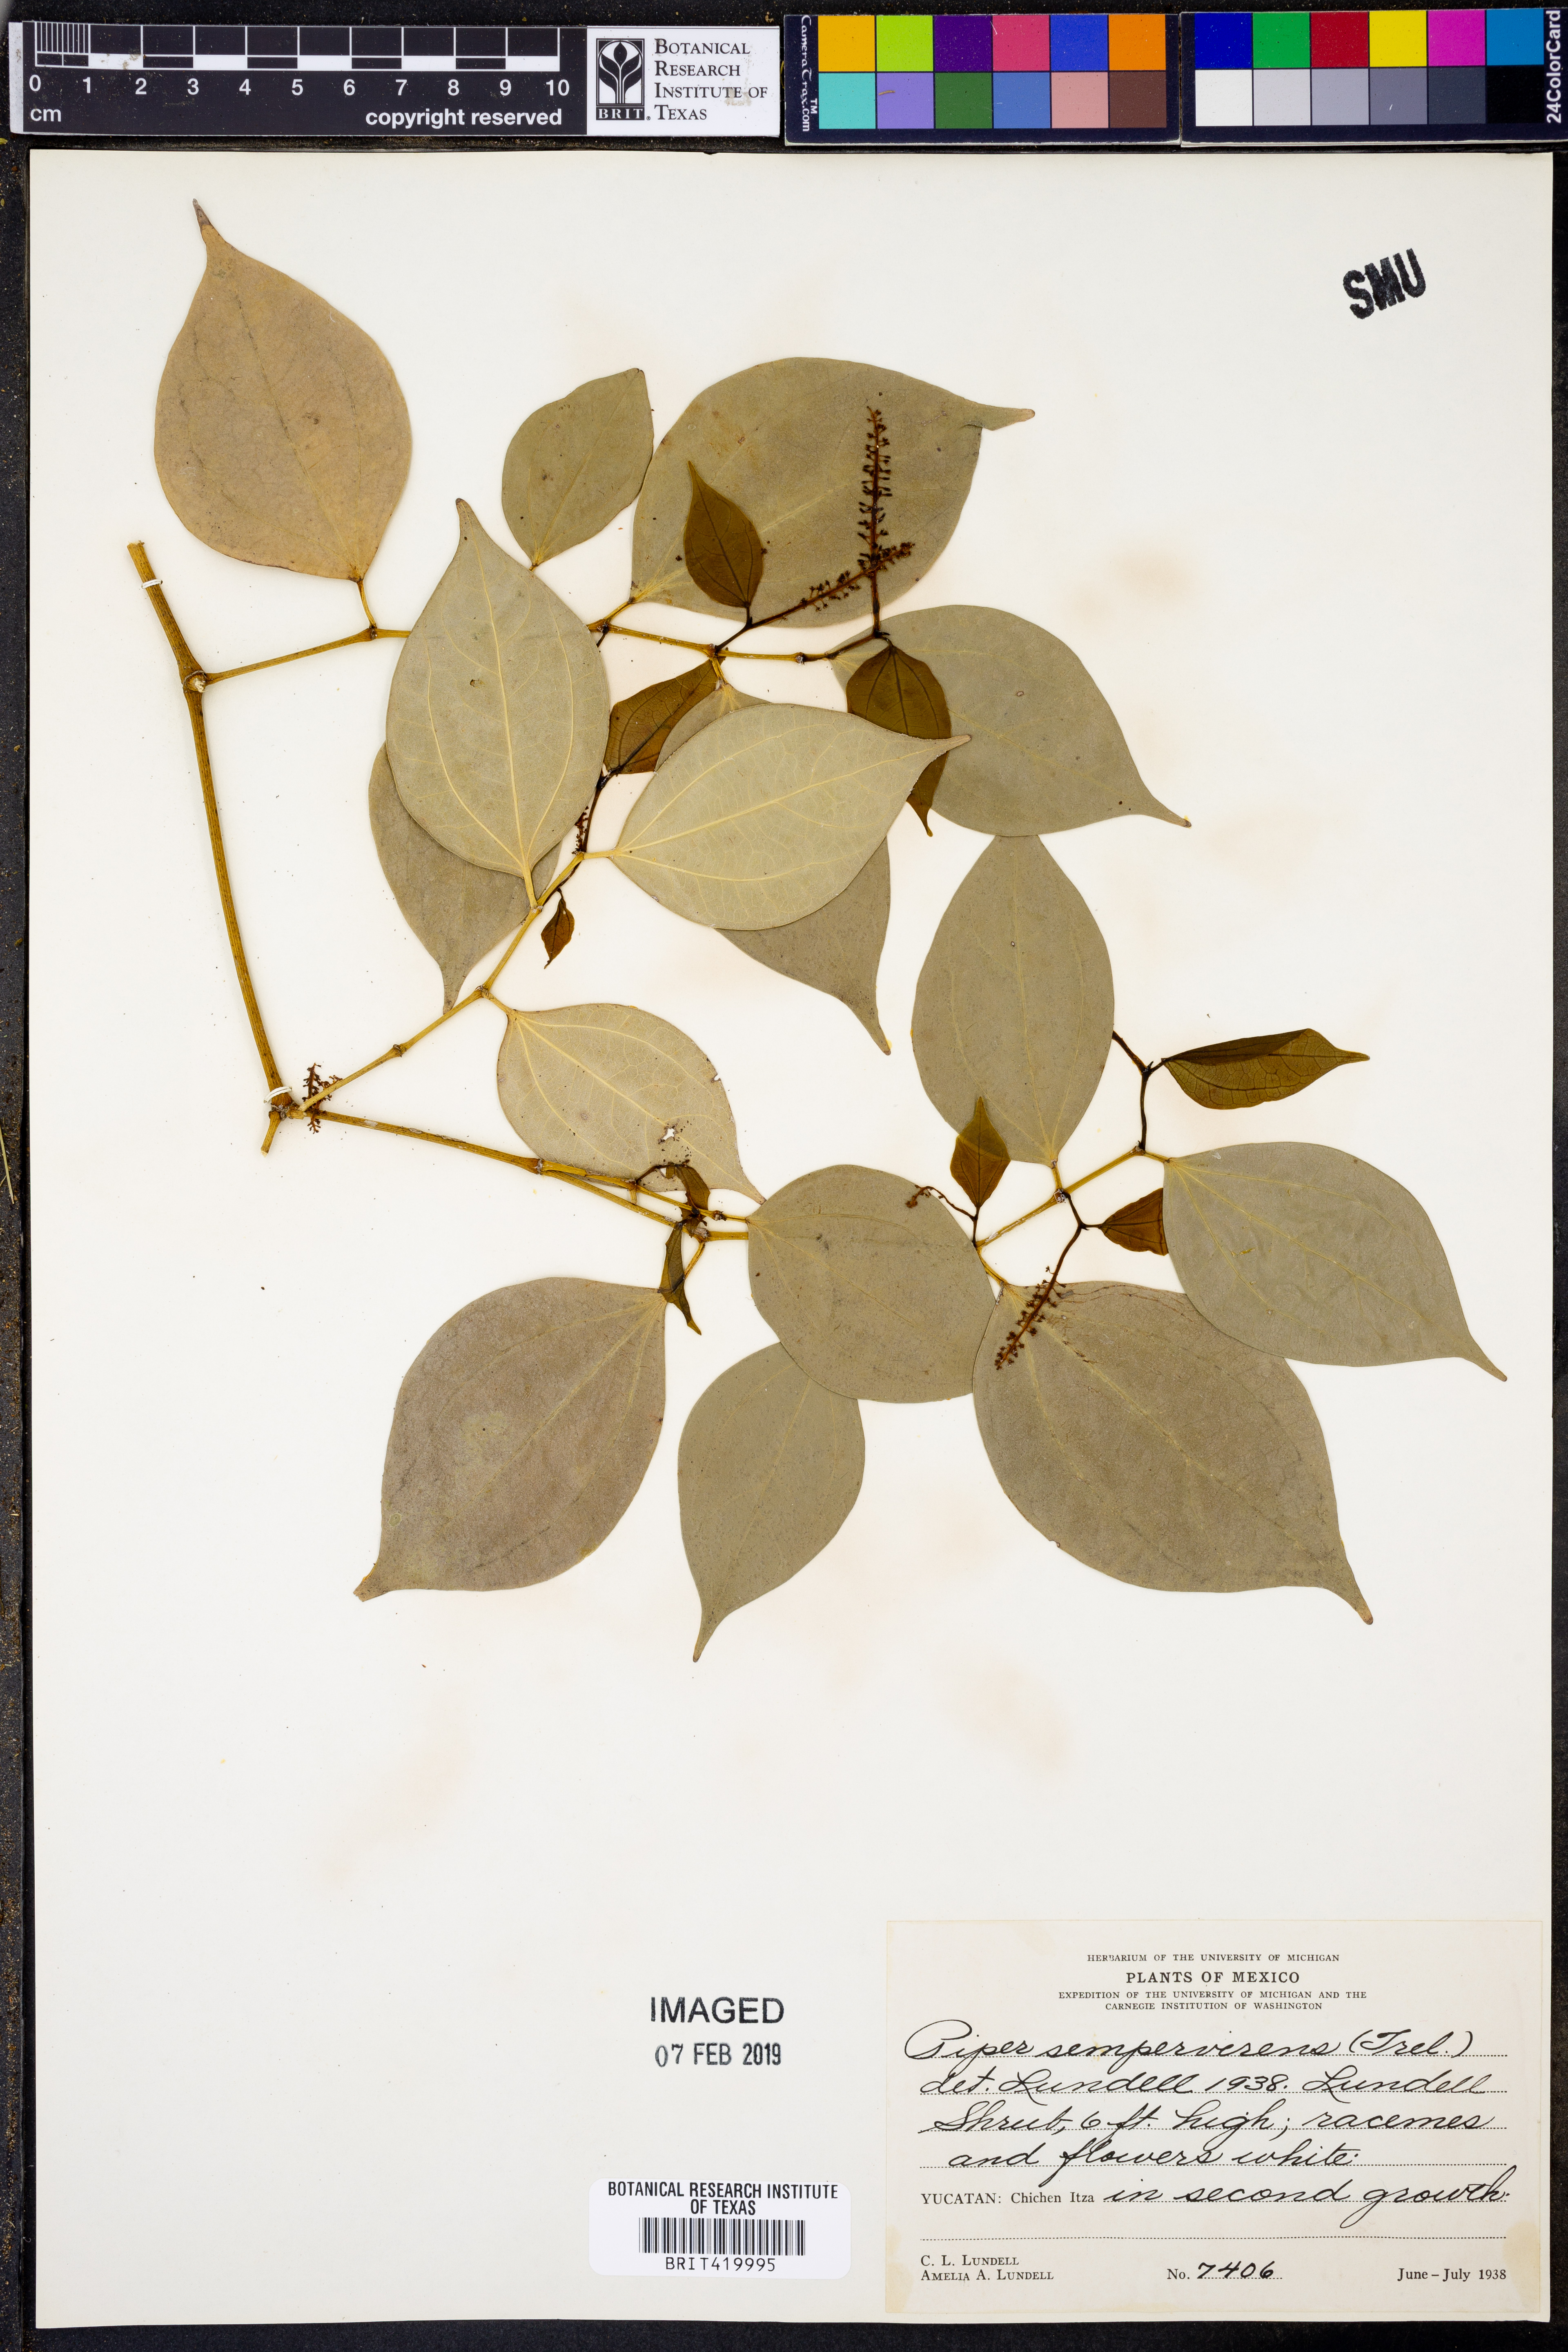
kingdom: Plantae
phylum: Tracheophyta
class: Magnoliopsida
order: Piperales
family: Piperaceae
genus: Piper
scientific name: Piper neesianum
